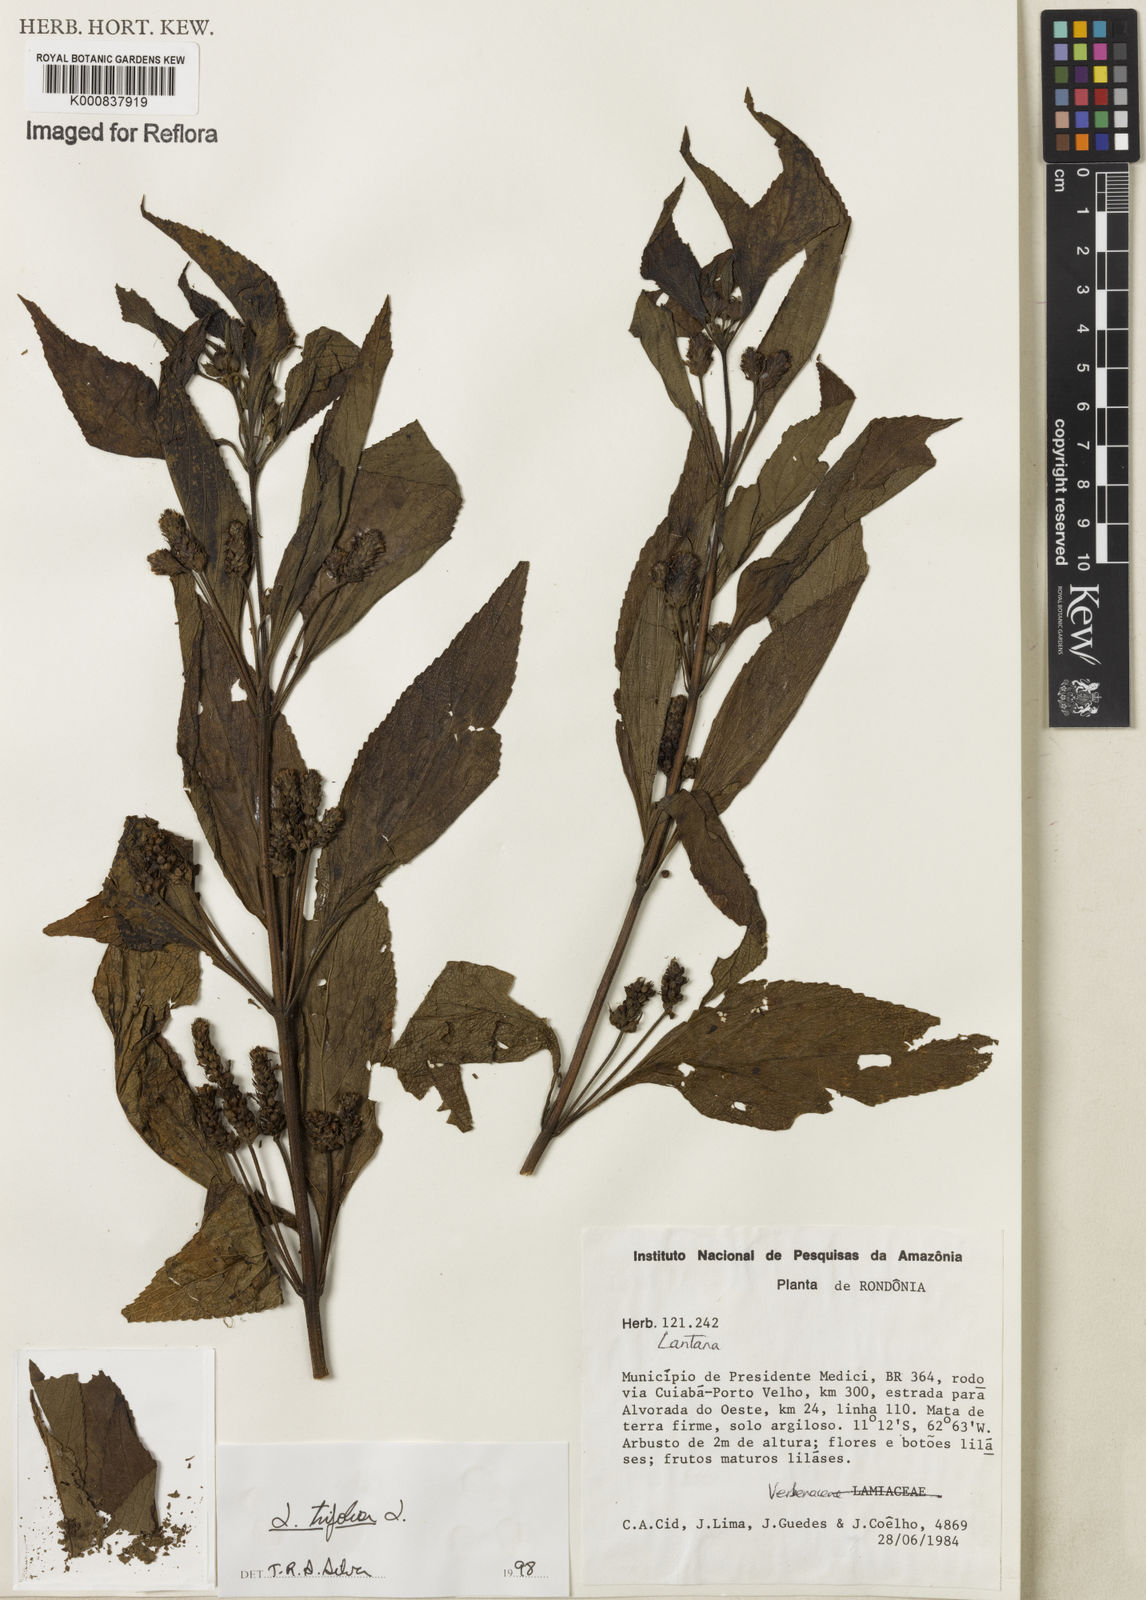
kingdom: Plantae
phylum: Tracheophyta
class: Magnoliopsida
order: Lamiales
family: Verbenaceae
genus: Lantana
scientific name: Lantana trifolia
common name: Sweet-sage
